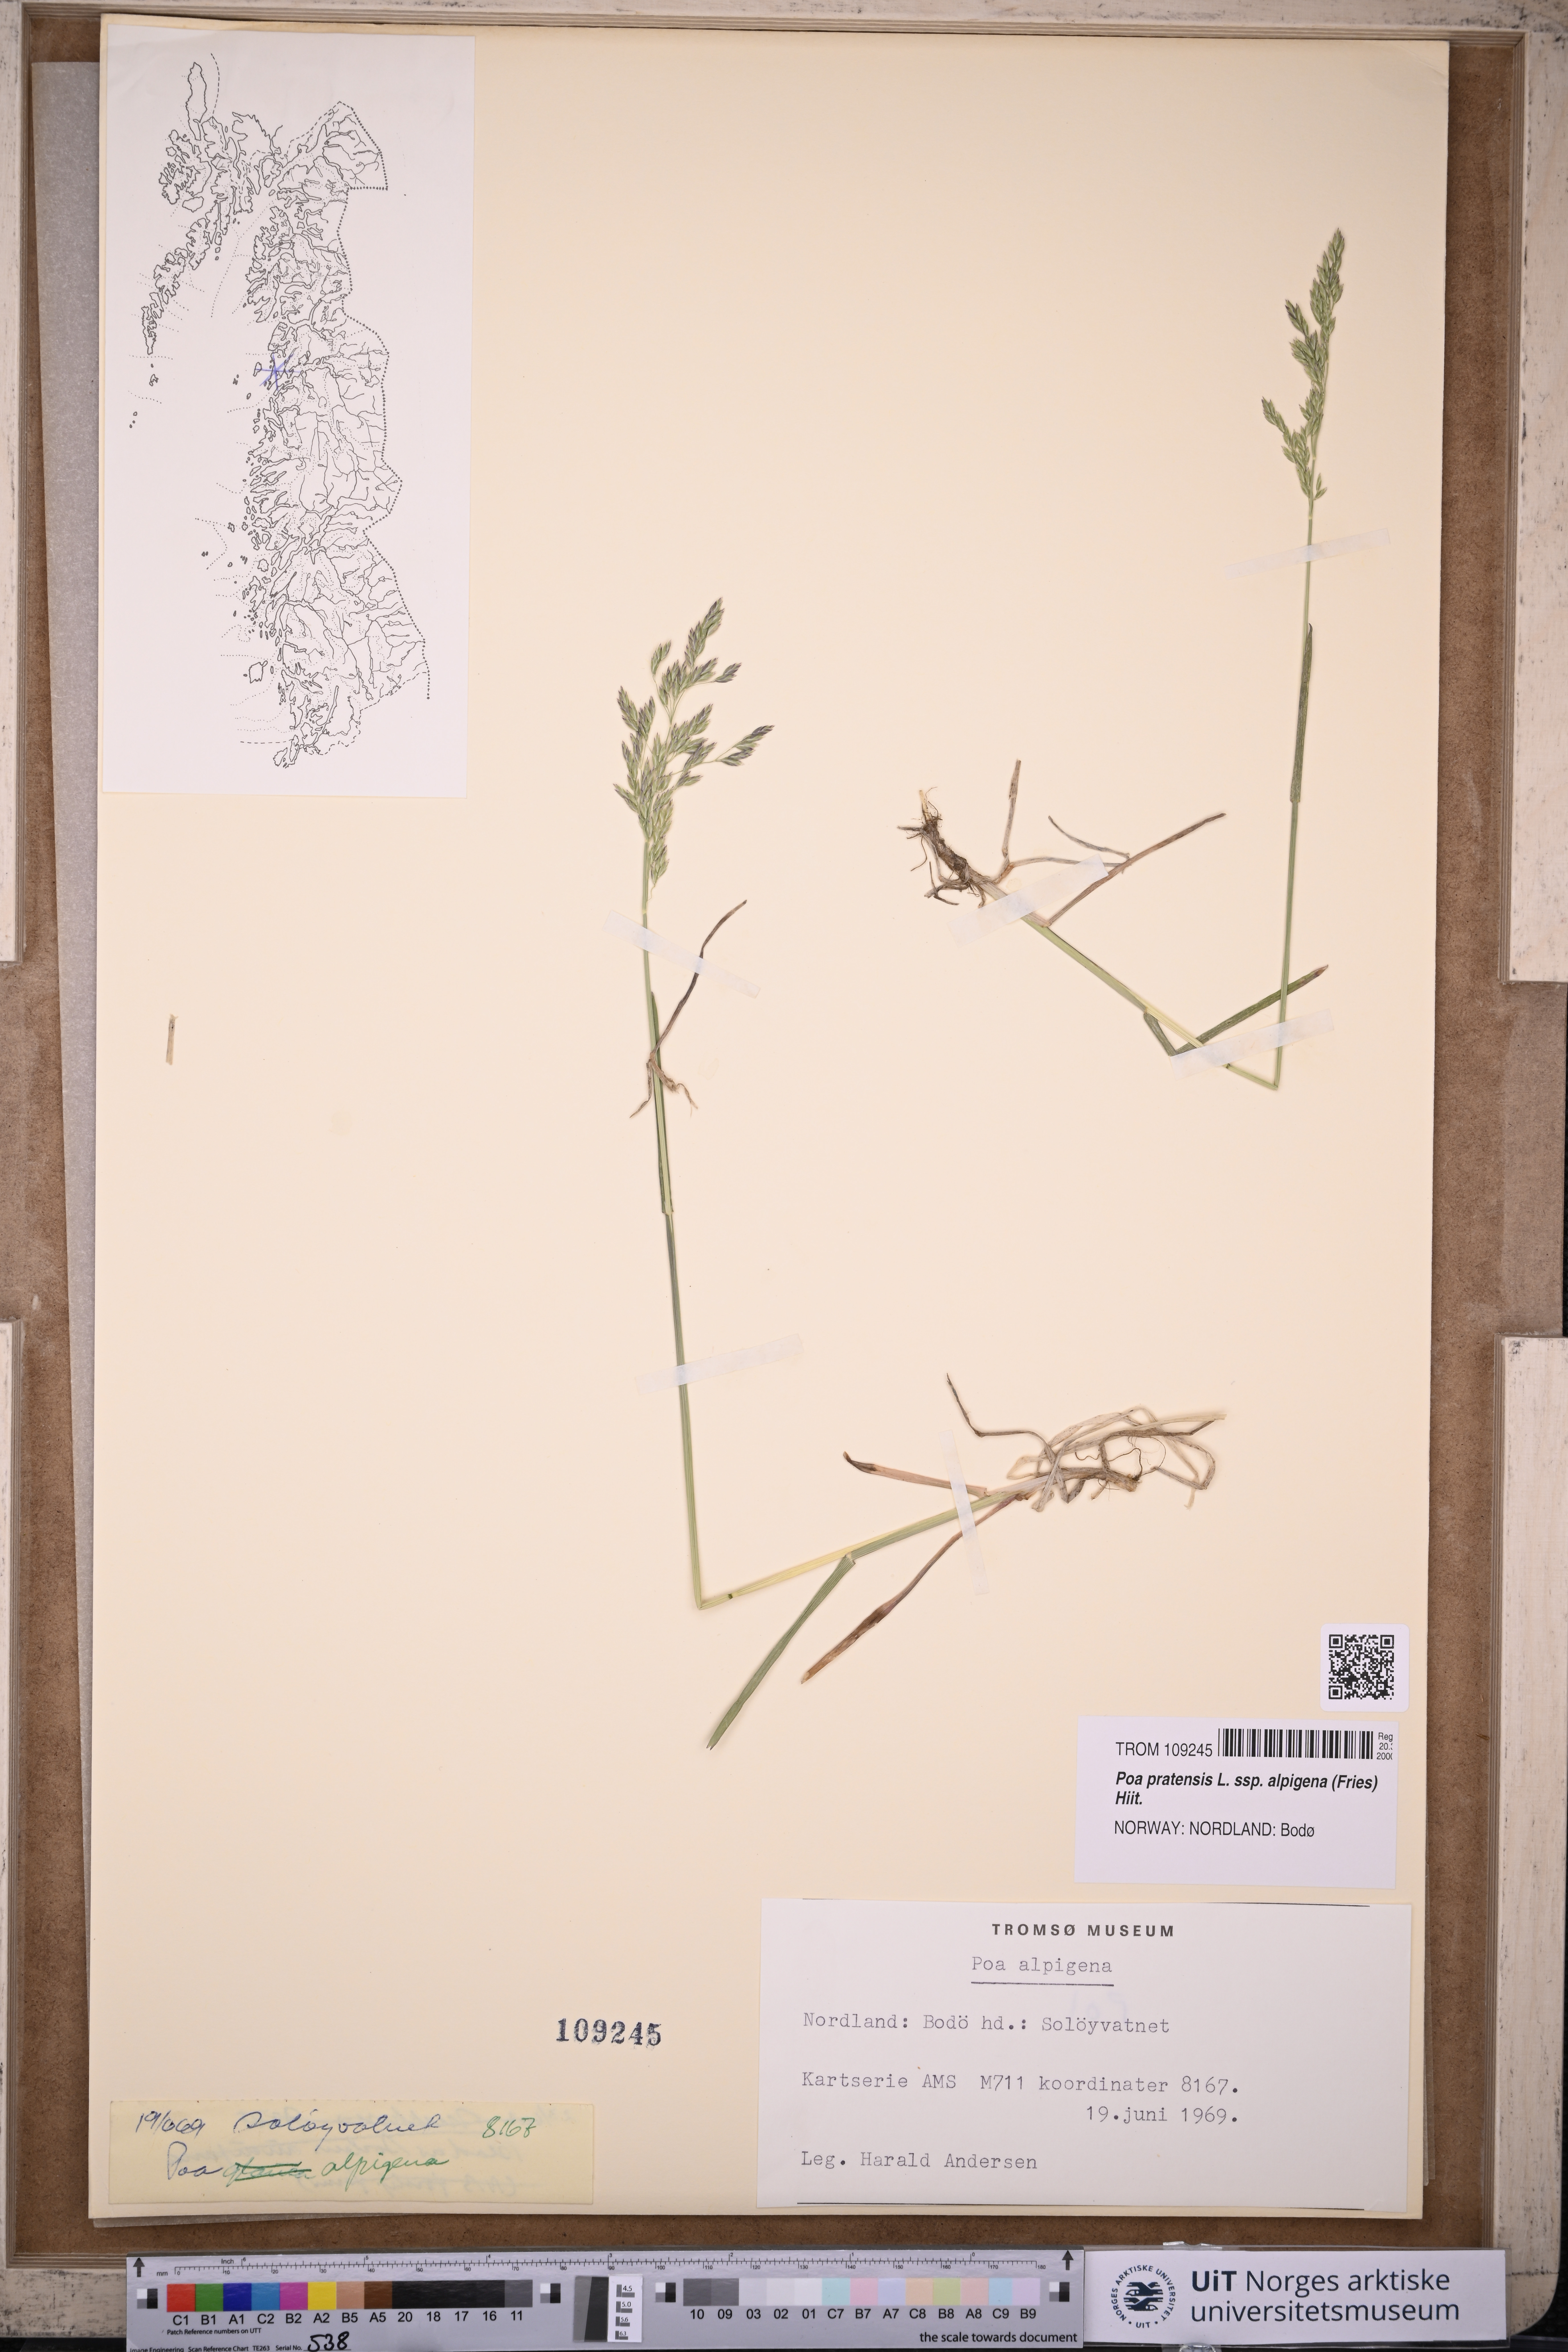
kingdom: Plantae
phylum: Tracheophyta
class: Liliopsida
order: Poales
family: Poaceae
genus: Poa
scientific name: Poa alpigena
